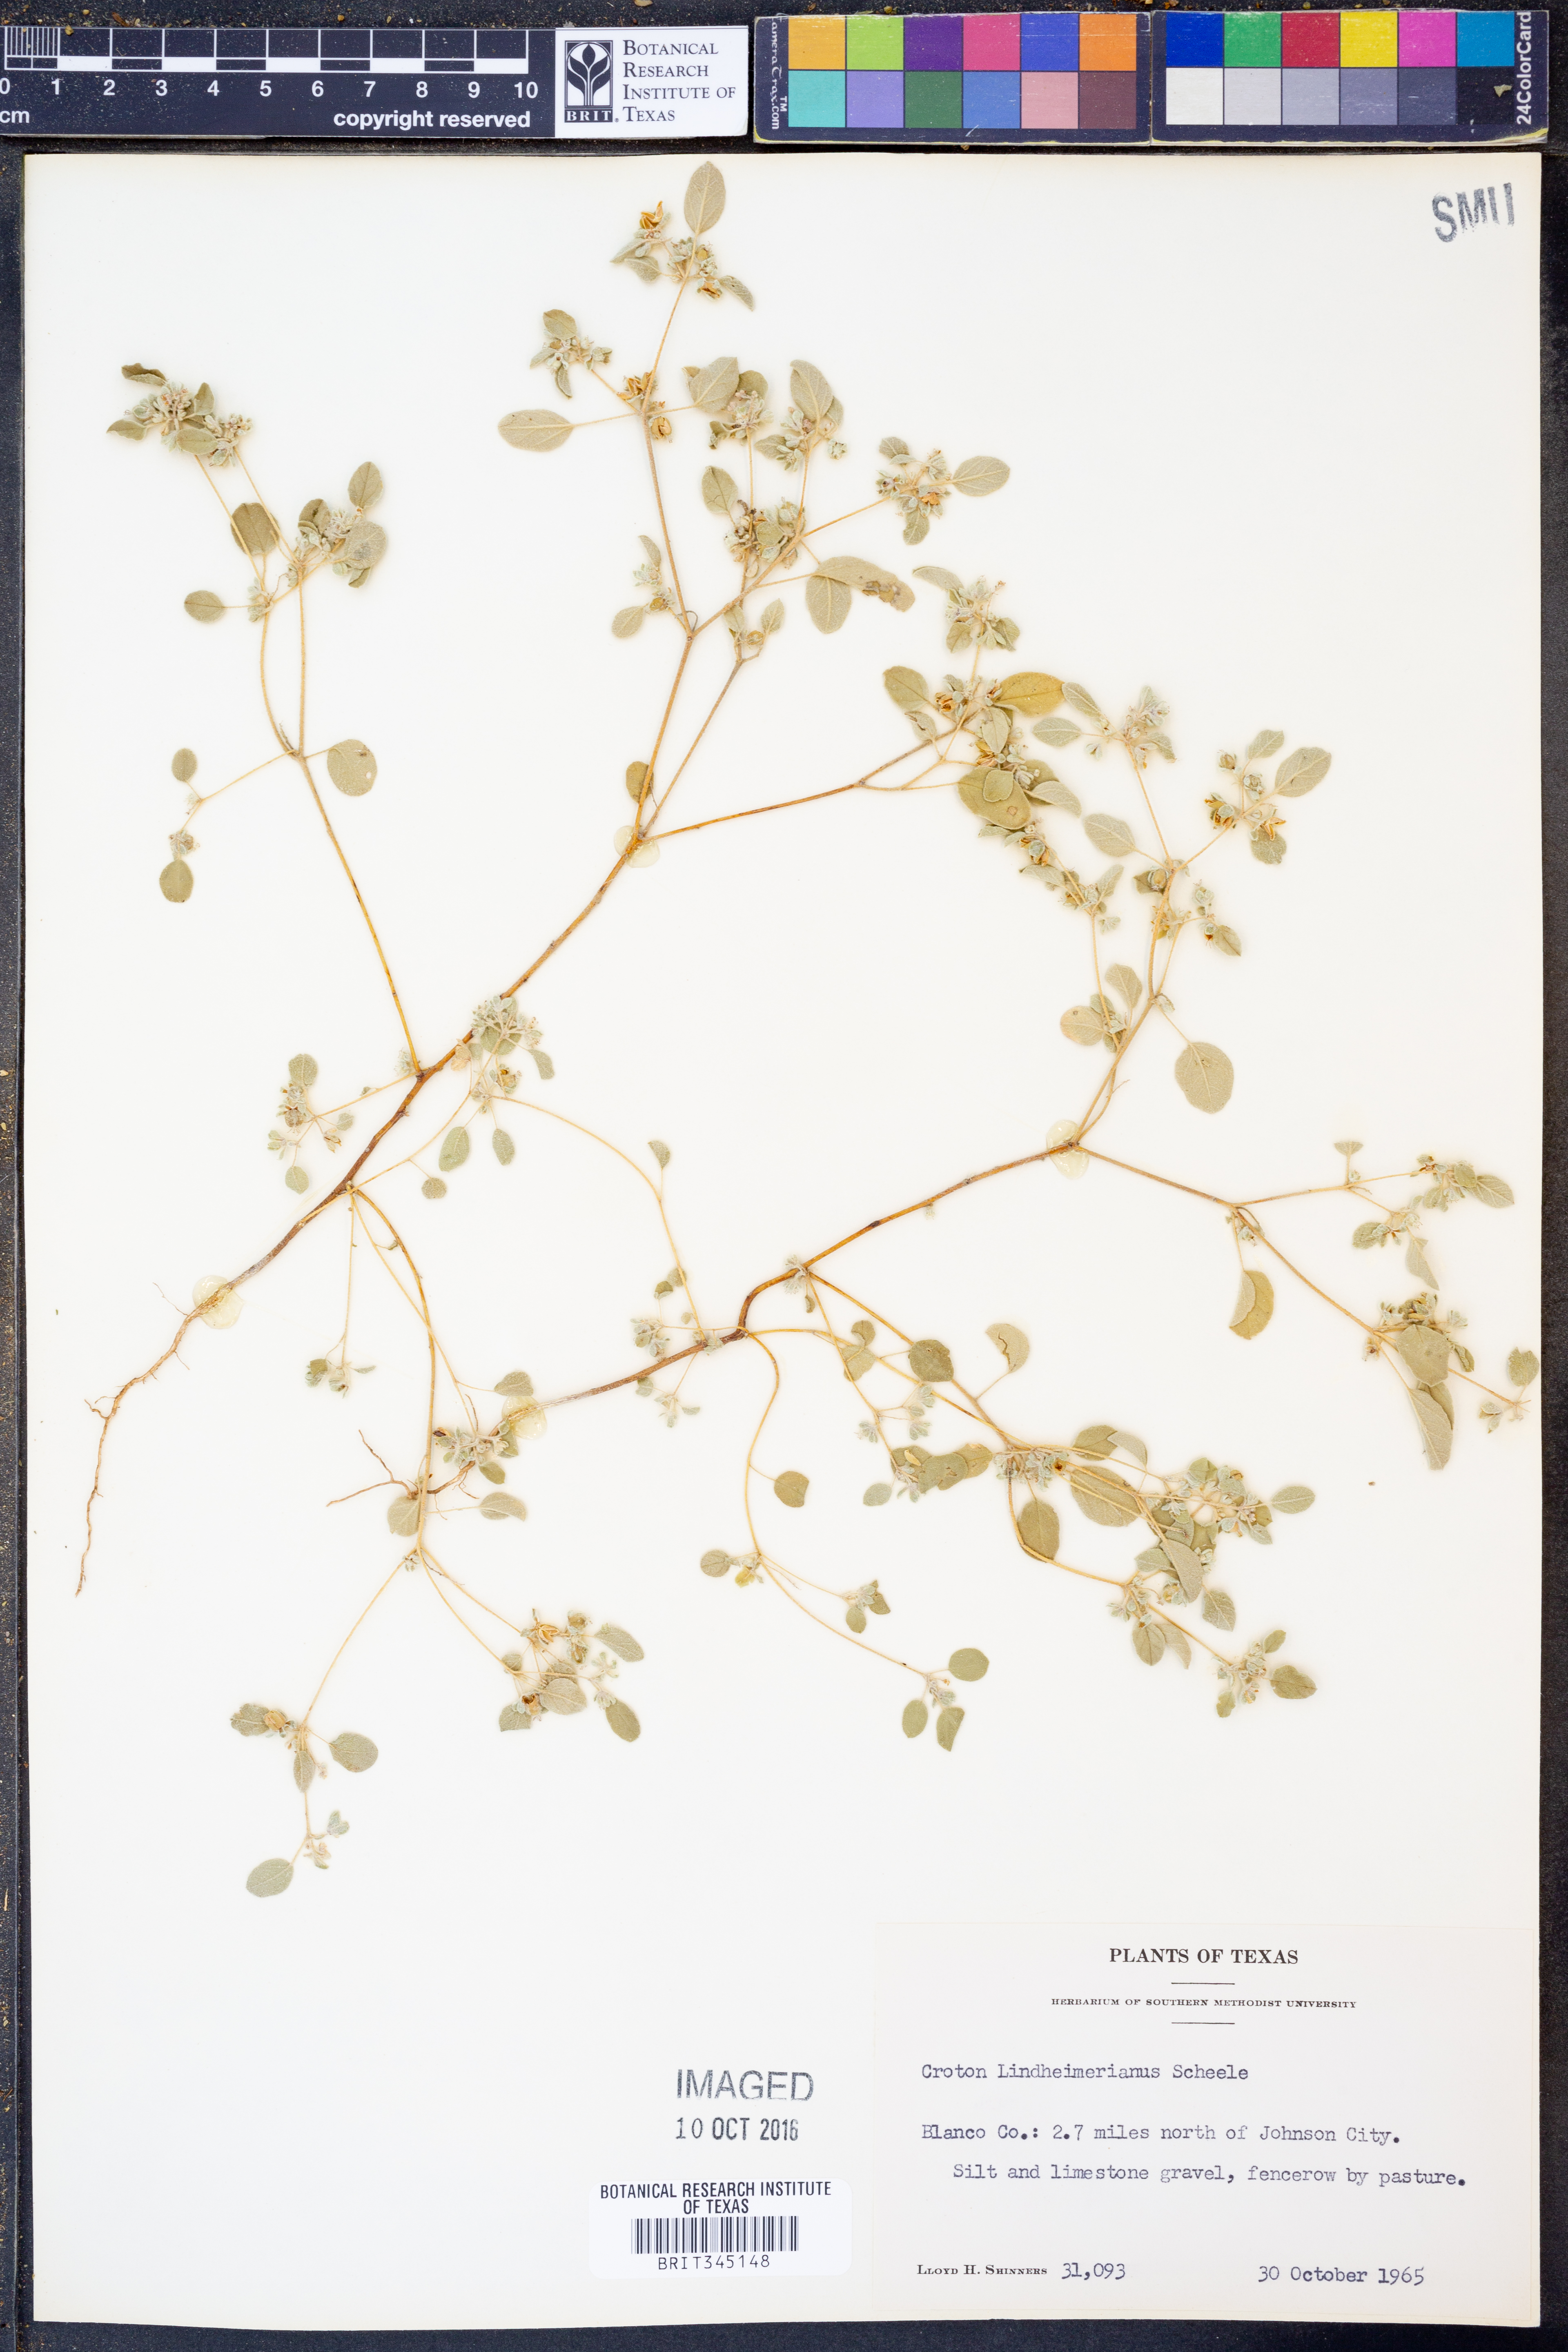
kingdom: Plantae
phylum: Tracheophyta
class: Magnoliopsida
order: Malpighiales
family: Euphorbiaceae
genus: Croton
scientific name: Croton lindheimerianus
